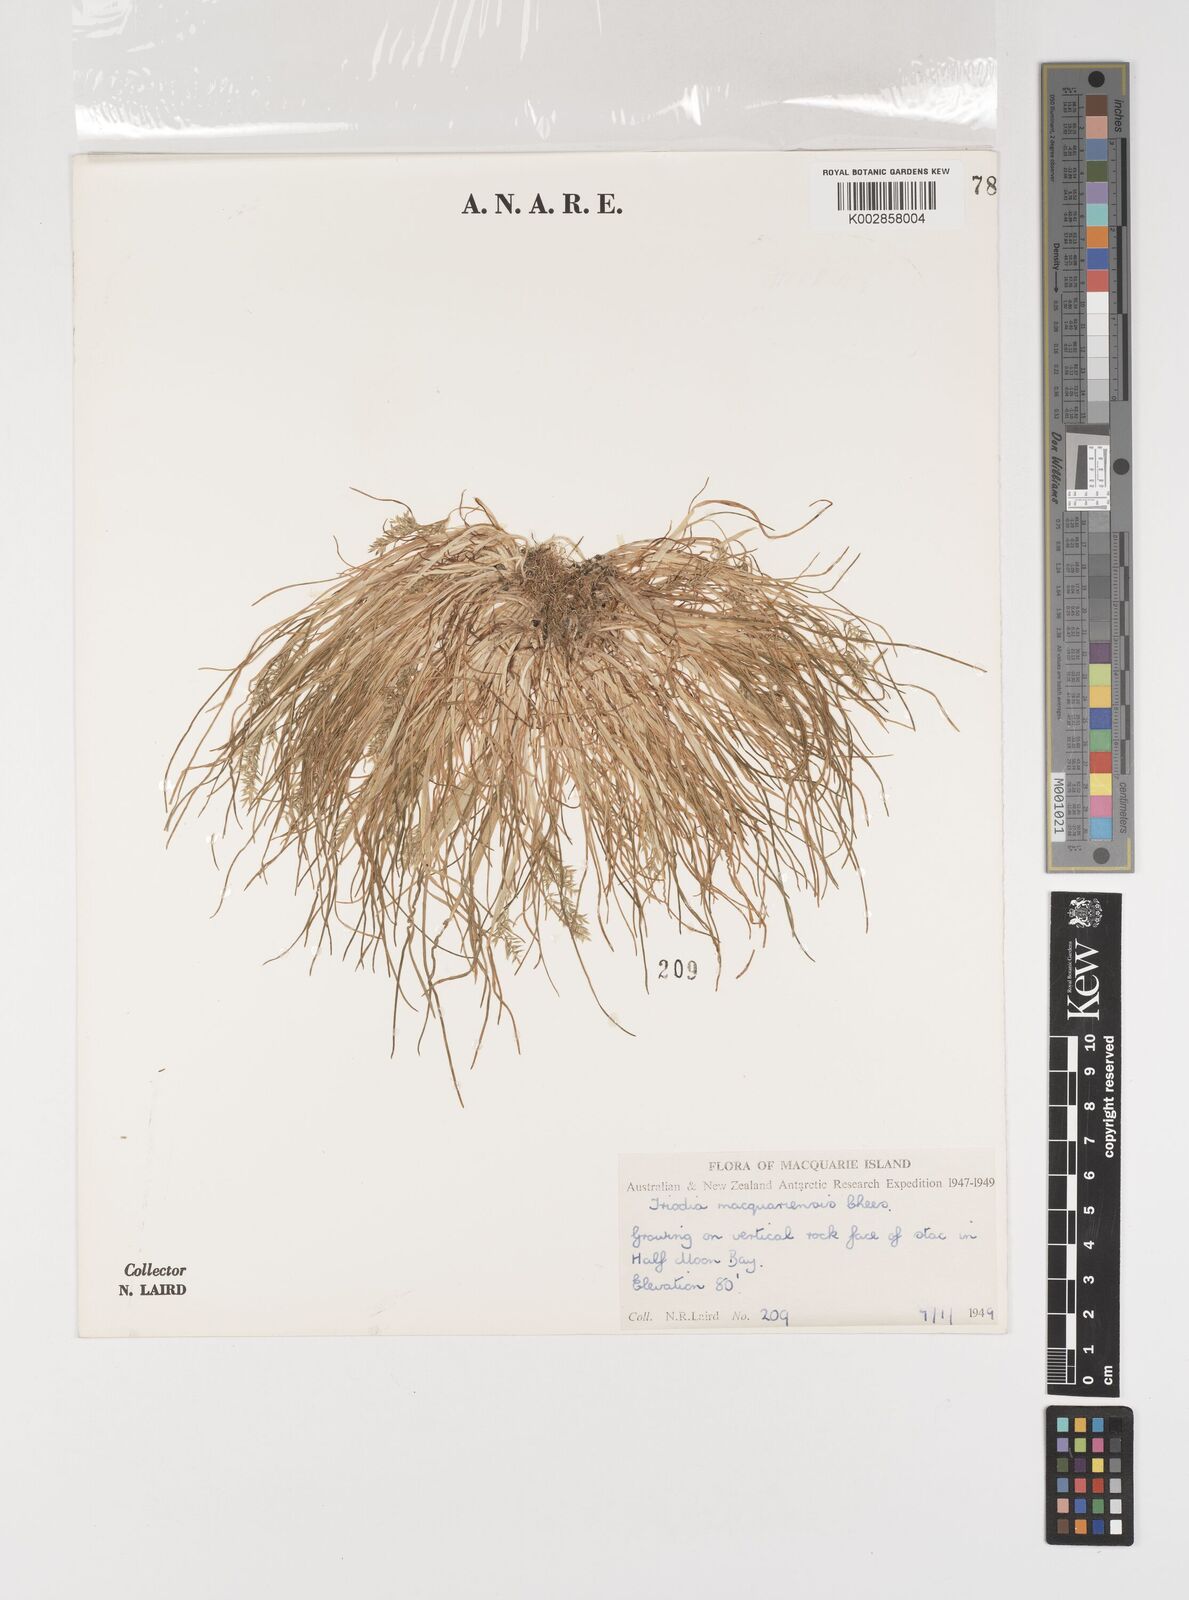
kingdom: Plantae
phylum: Tracheophyta
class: Liliopsida
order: Poales
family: Poaceae
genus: Puccinellia
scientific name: Puccinellia macquariensis
